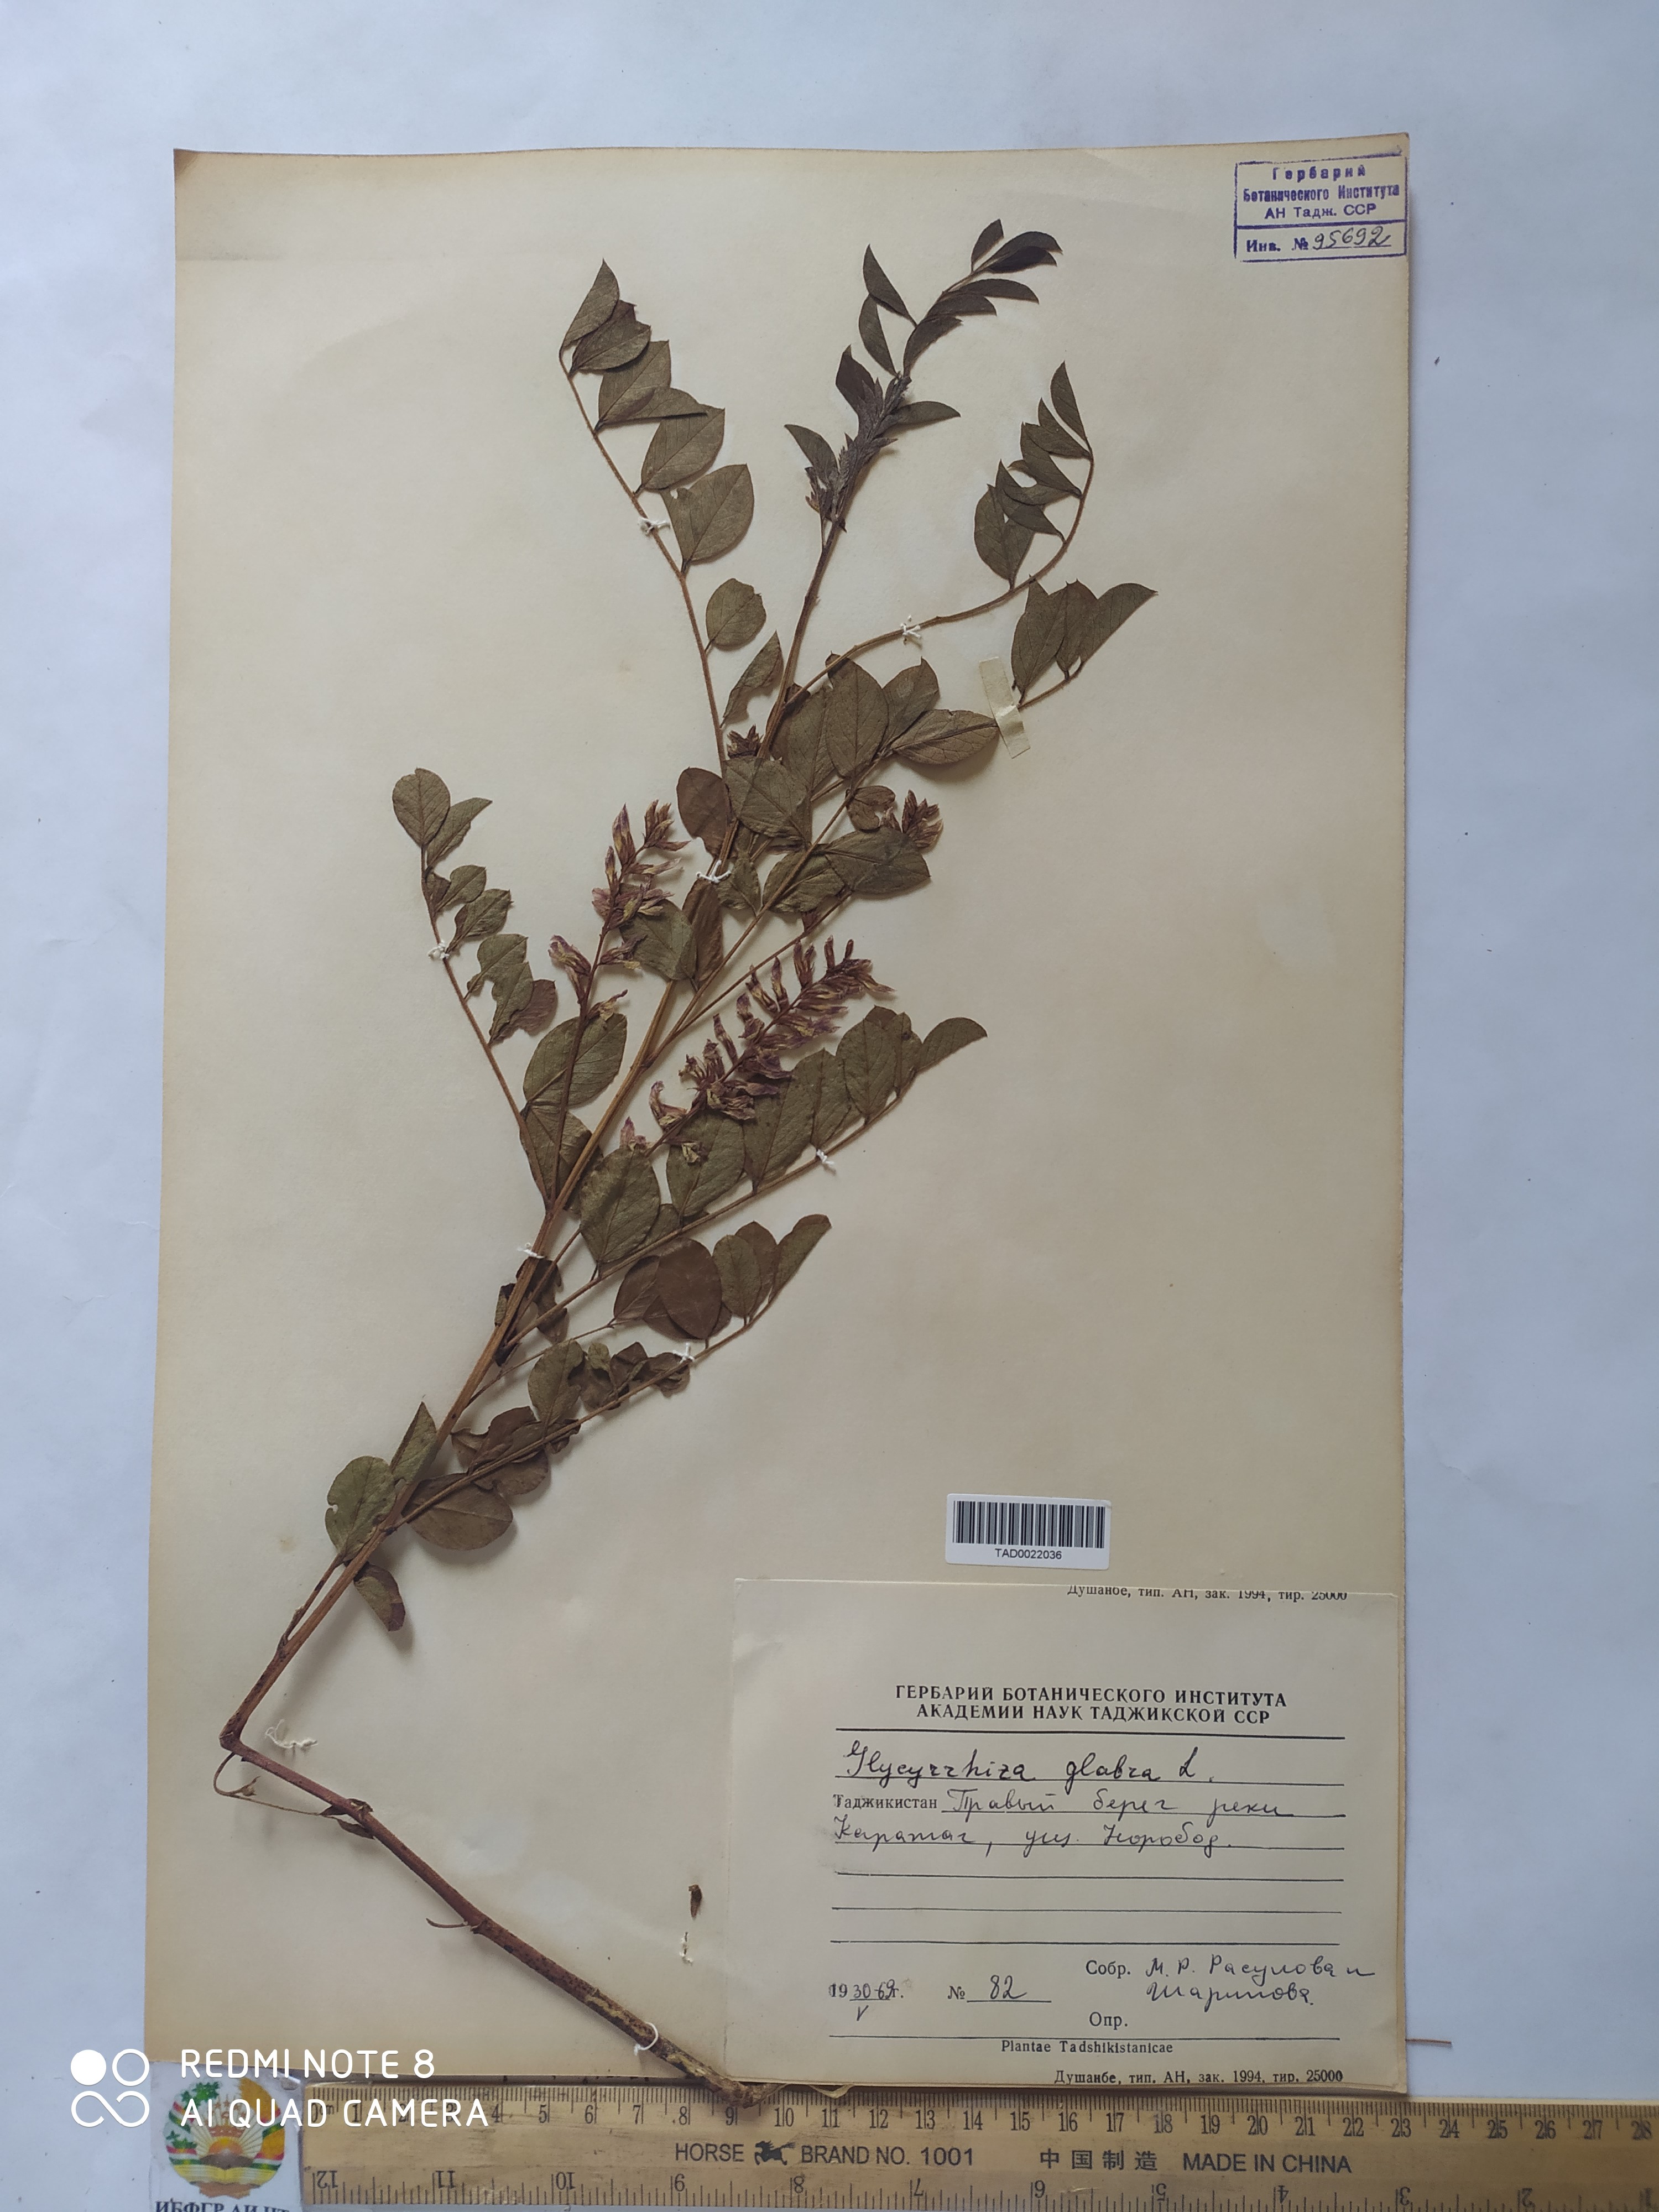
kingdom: Plantae
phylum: Tracheophyta
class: Magnoliopsida
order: Fabales
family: Fabaceae
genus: Glycyrrhiza
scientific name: Glycyrrhiza glabra
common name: Liquorice
